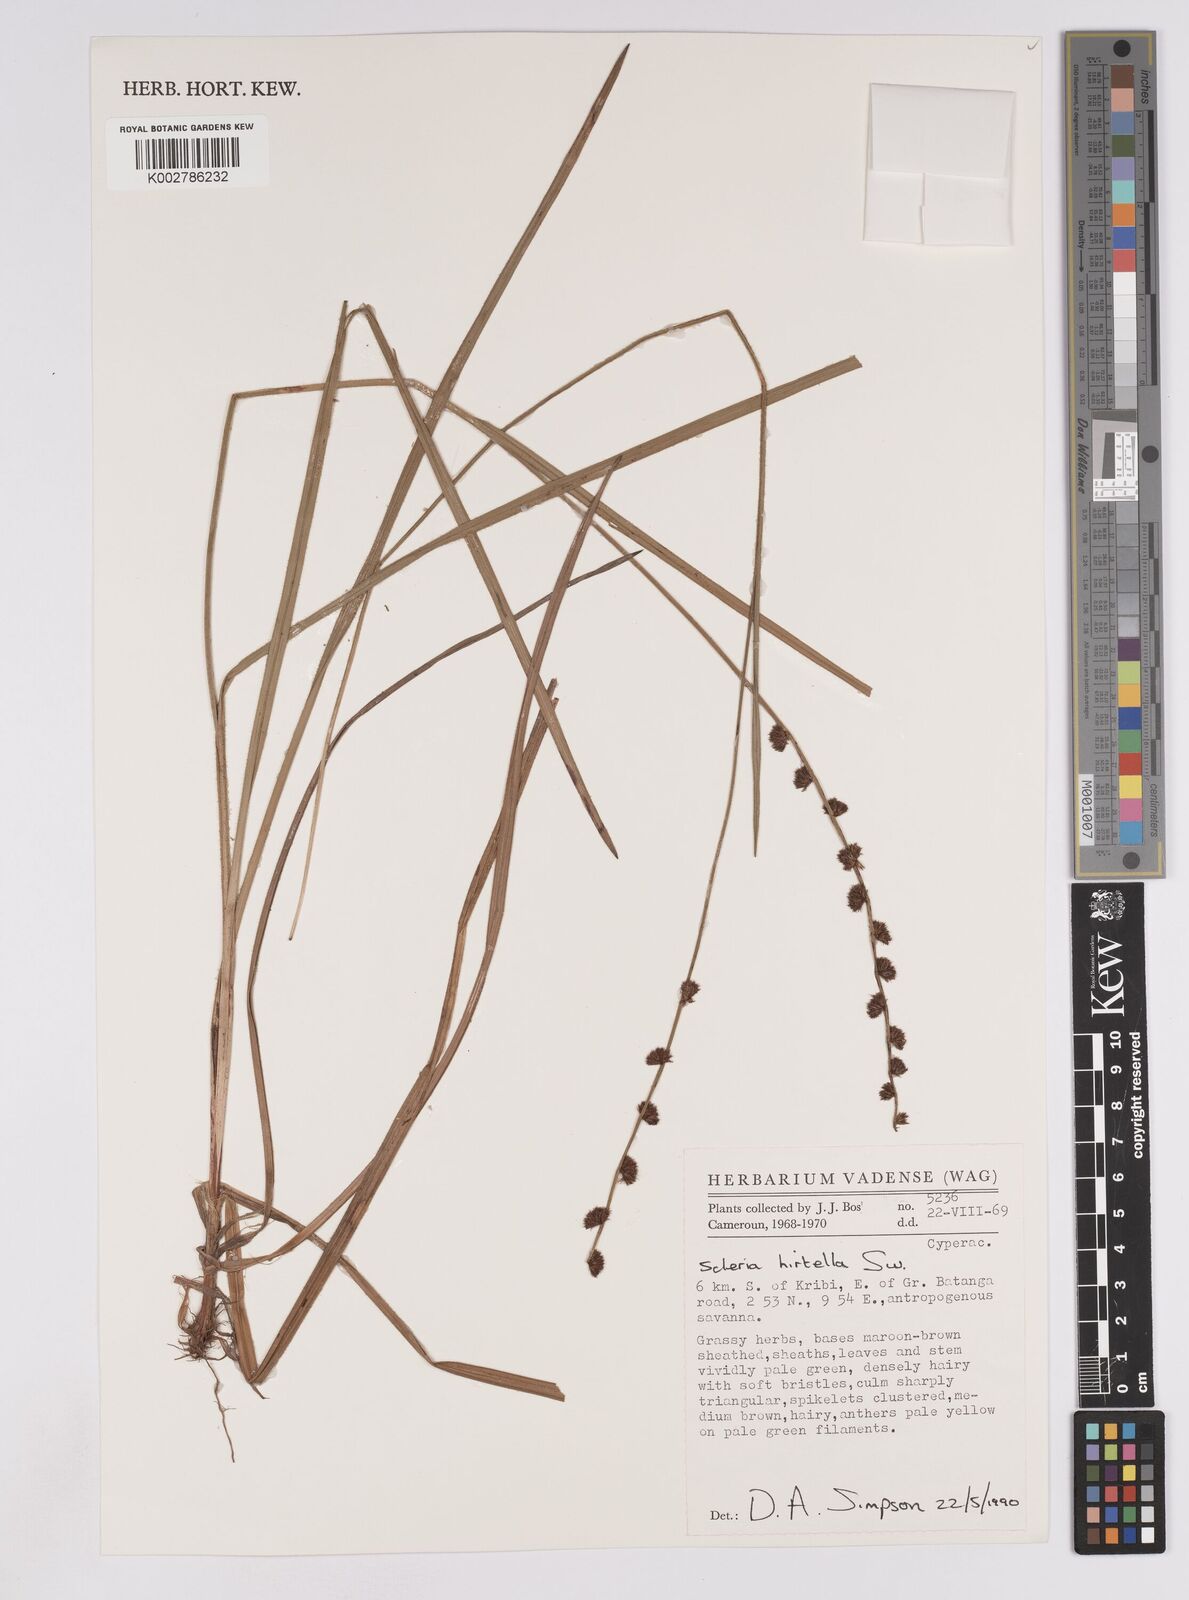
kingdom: Plantae
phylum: Tracheophyta
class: Liliopsida
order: Poales
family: Cyperaceae
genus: Scleria
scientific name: Scleria hirtella
